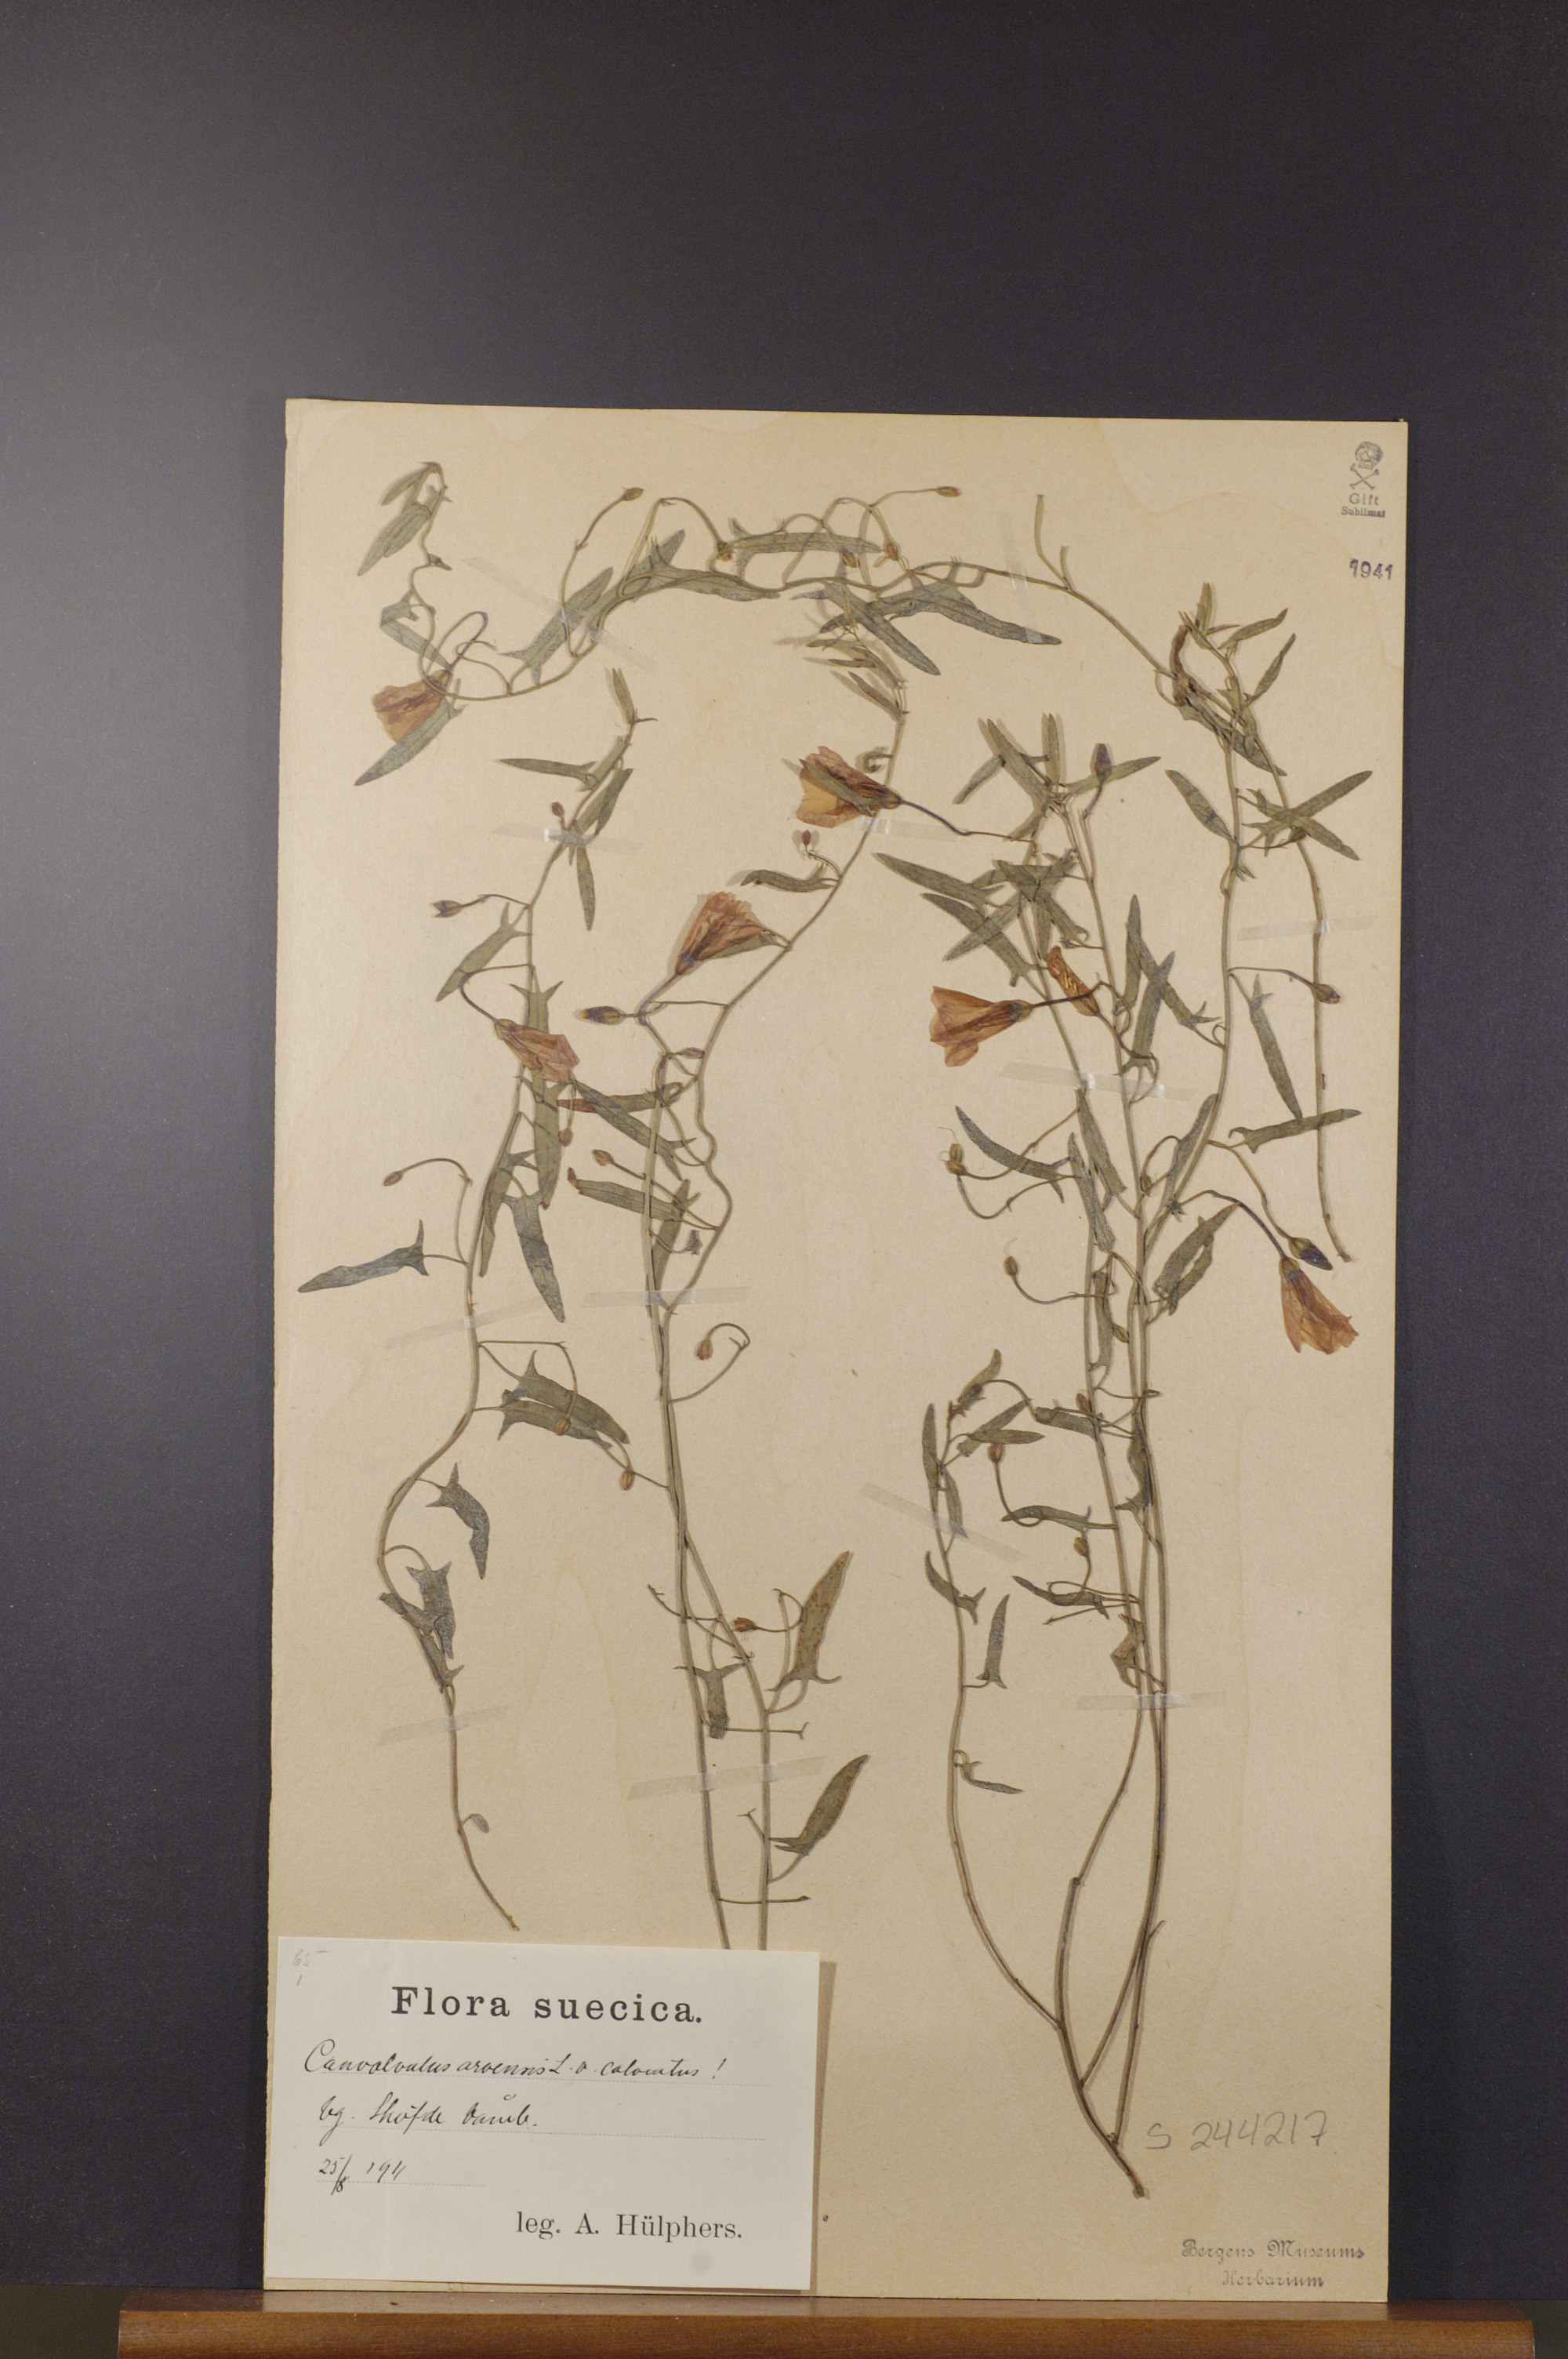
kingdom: Plantae
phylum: Tracheophyta
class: Magnoliopsida
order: Solanales
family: Convolvulaceae
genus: Convolvulus
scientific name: Convolvulus arvensis
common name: Field bindweed
